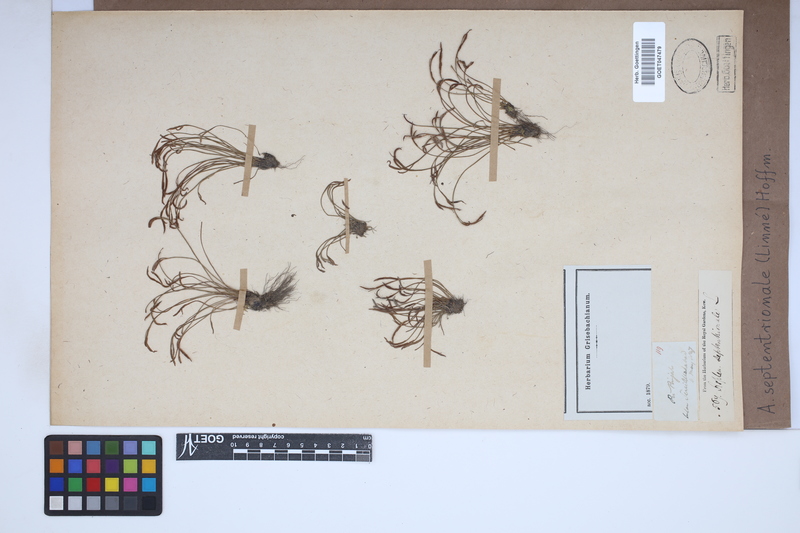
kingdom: Plantae
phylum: Tracheophyta
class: Polypodiopsida
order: Polypodiales
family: Aspleniaceae
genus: Asplenium
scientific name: Asplenium septentrionale
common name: Forked spleenwort
